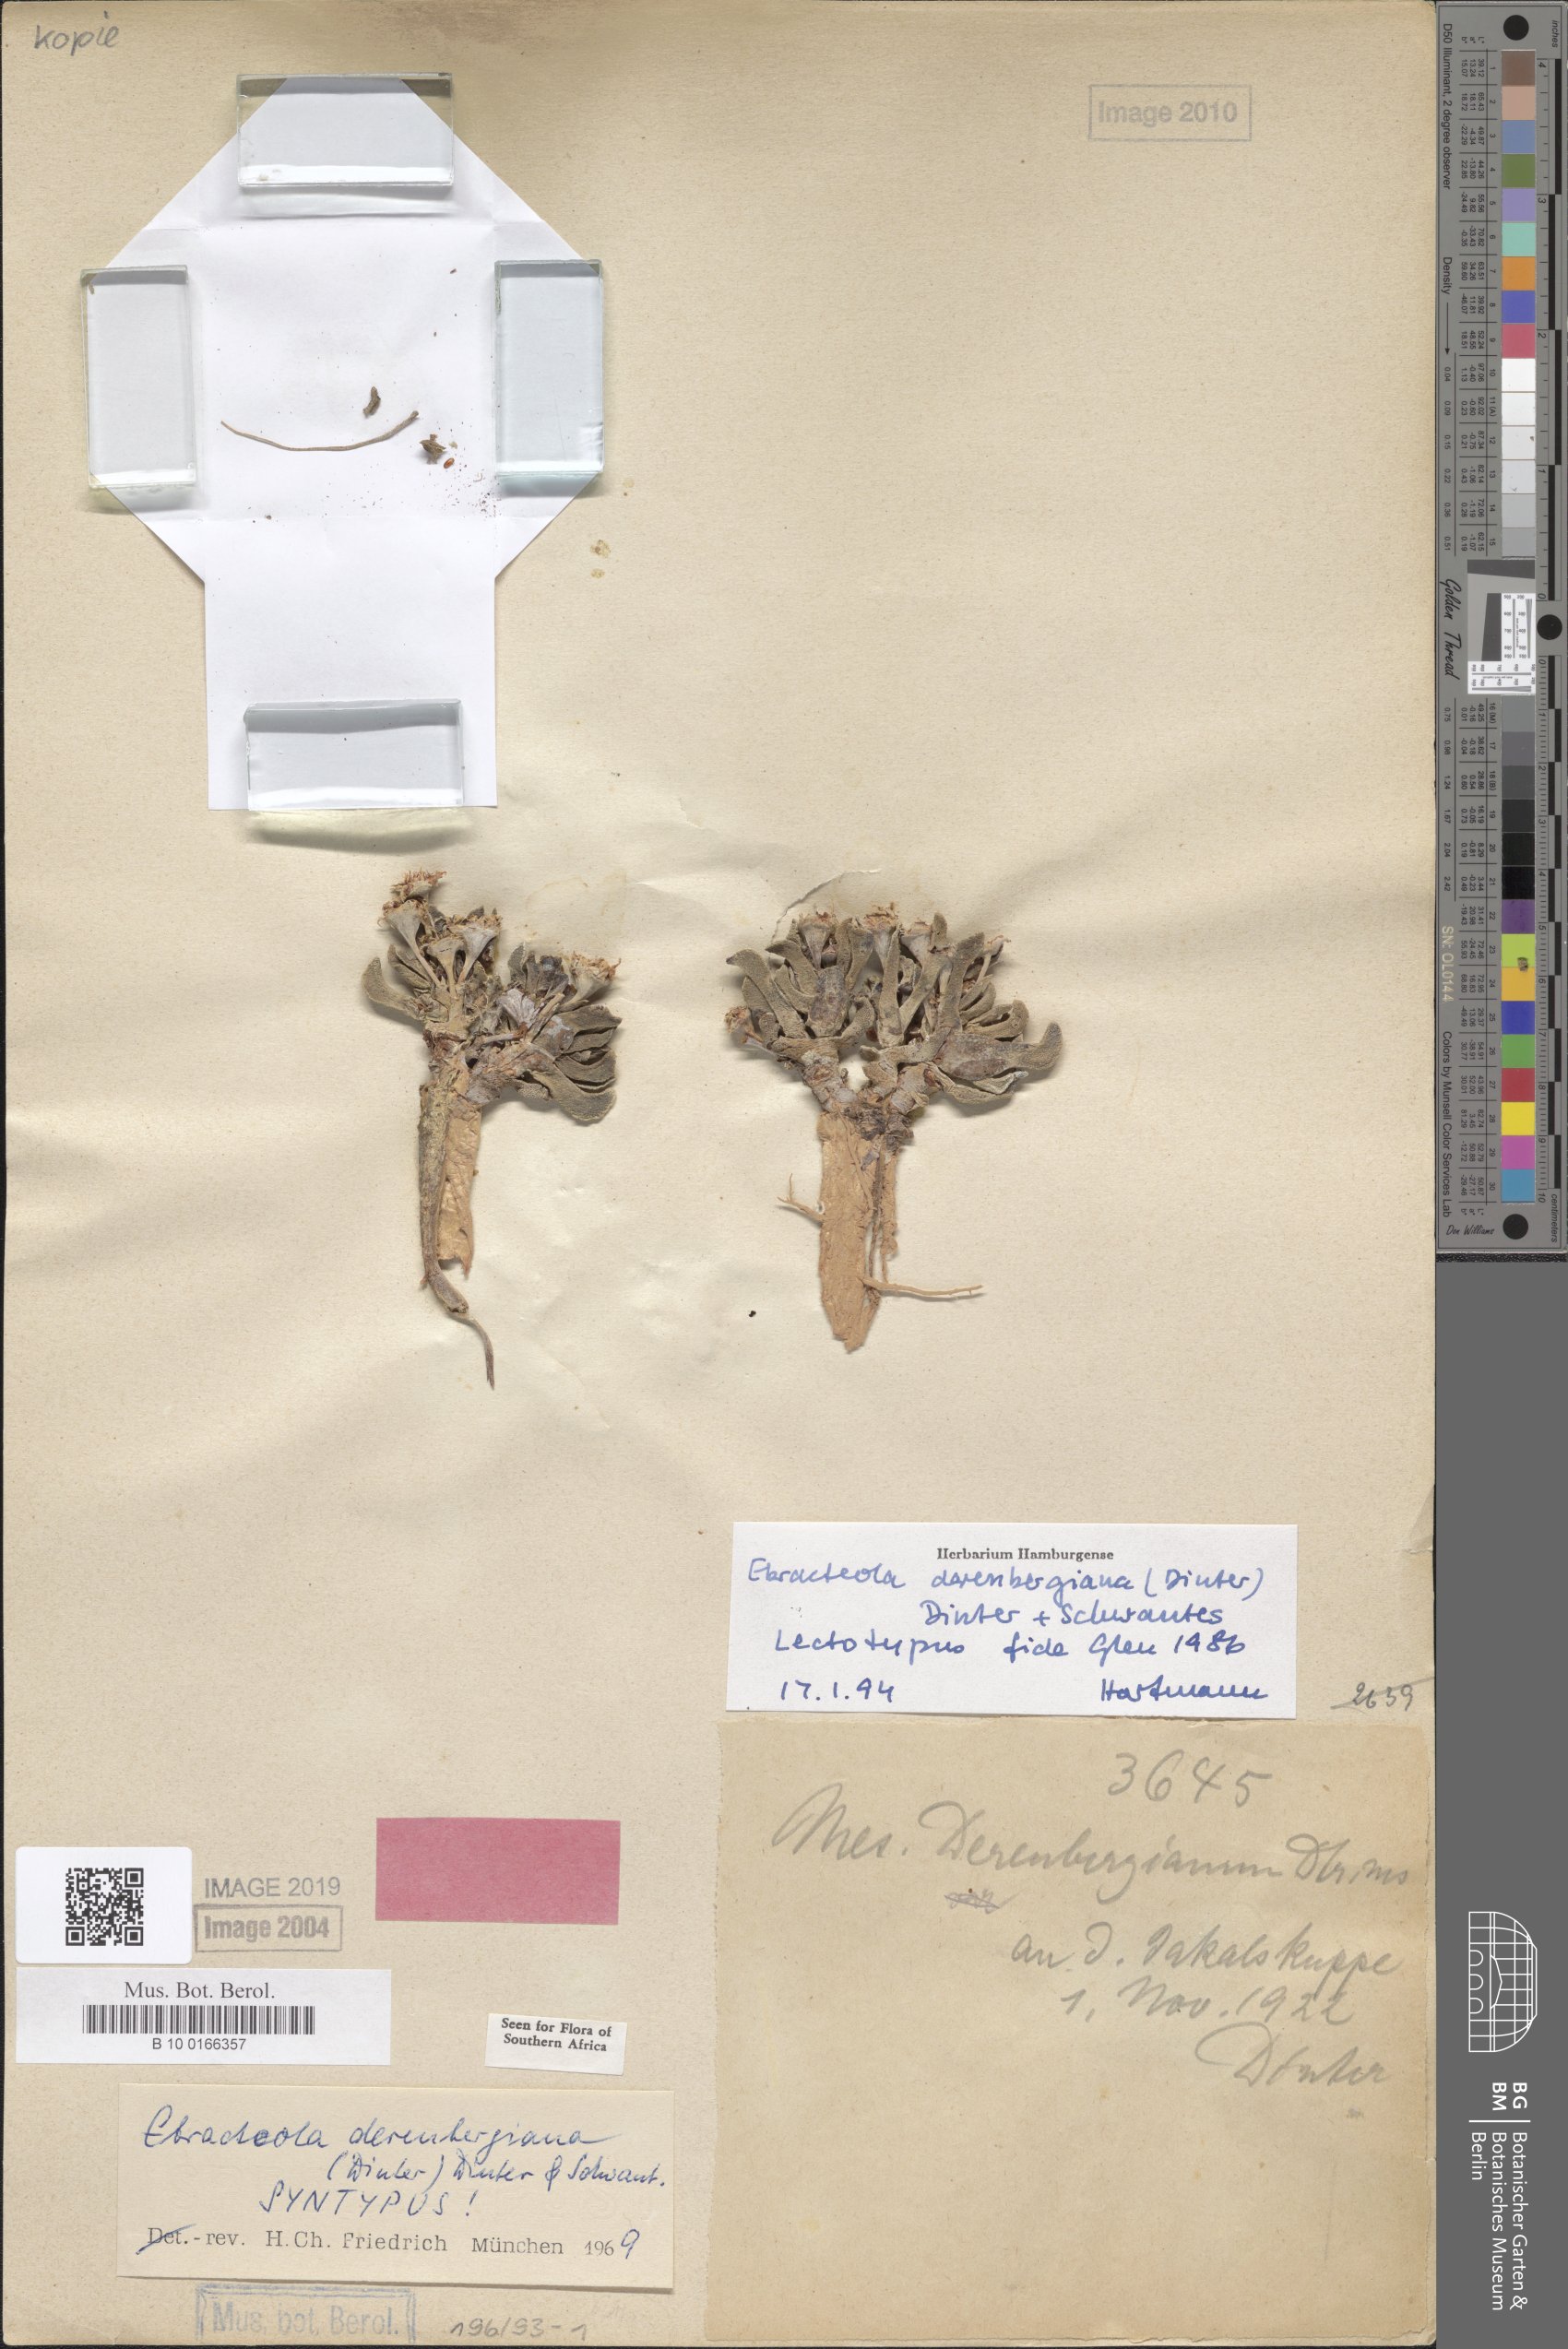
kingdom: Plantae
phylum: Tracheophyta
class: Magnoliopsida
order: Caryophyllales
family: Aizoaceae
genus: Ebracteola
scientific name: Ebracteola derenbergiana
